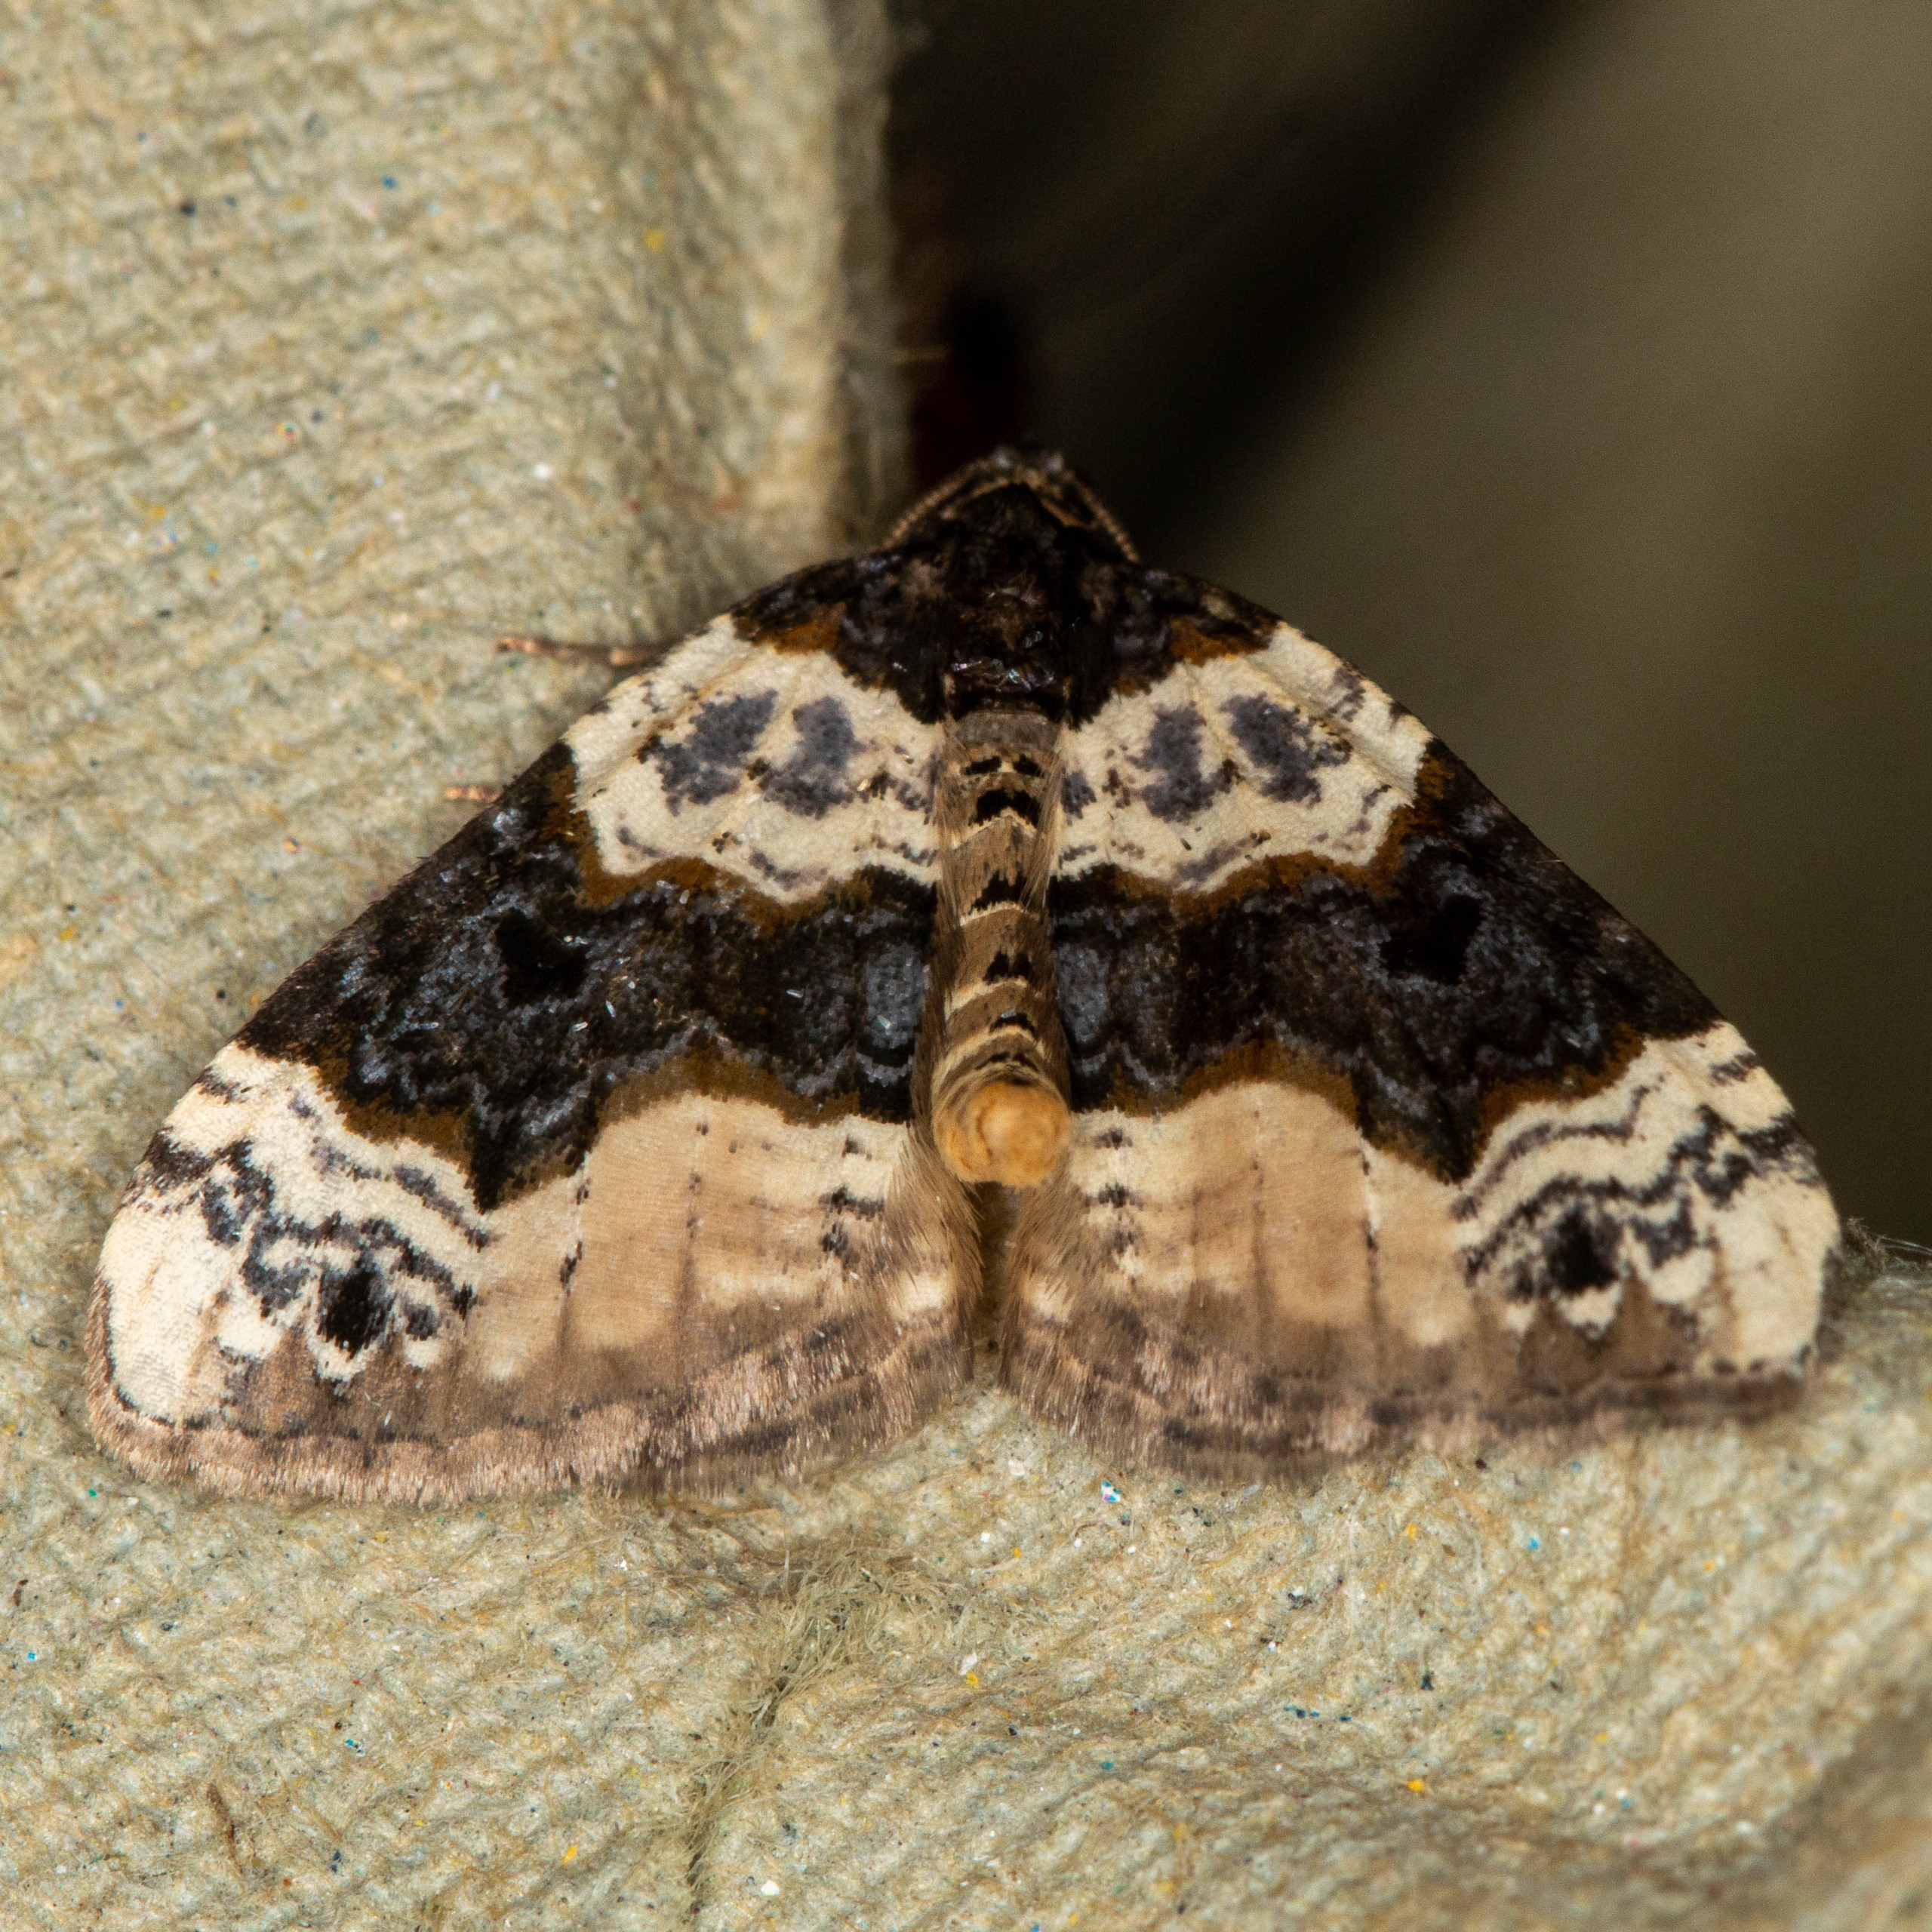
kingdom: Animalia
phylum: Arthropoda
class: Insecta
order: Lepidoptera
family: Geometridae
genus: Cosmorhoe
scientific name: Cosmorhoe ocellata
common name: Snerre-bladmåler
